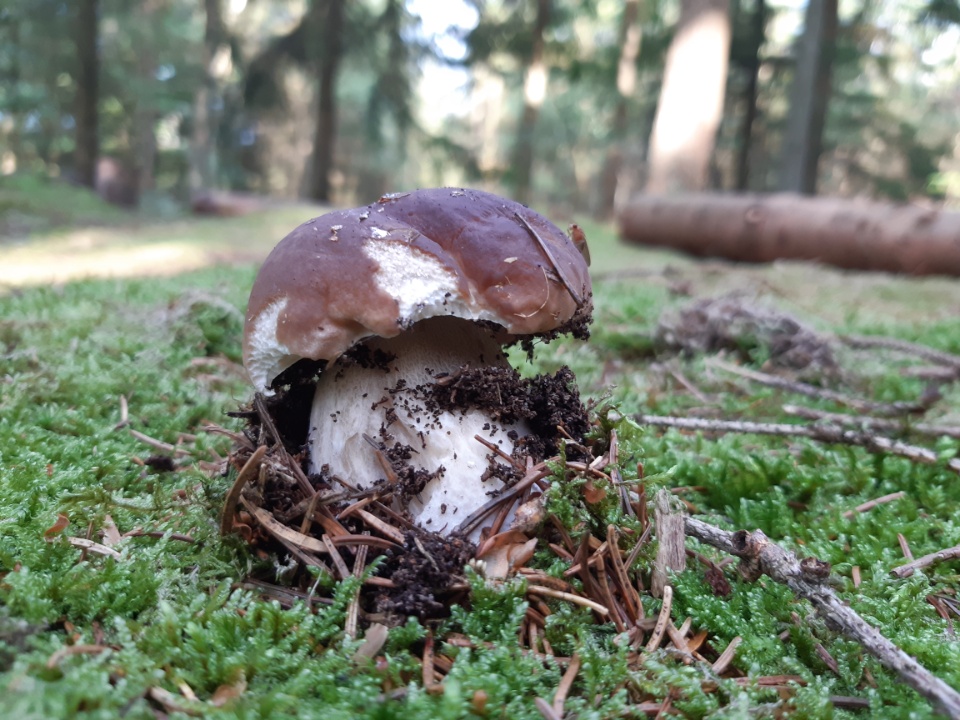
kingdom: Fungi
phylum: Basidiomycota
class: Agaricomycetes
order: Boletales
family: Boletaceae
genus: Boletus
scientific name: Boletus edulis
